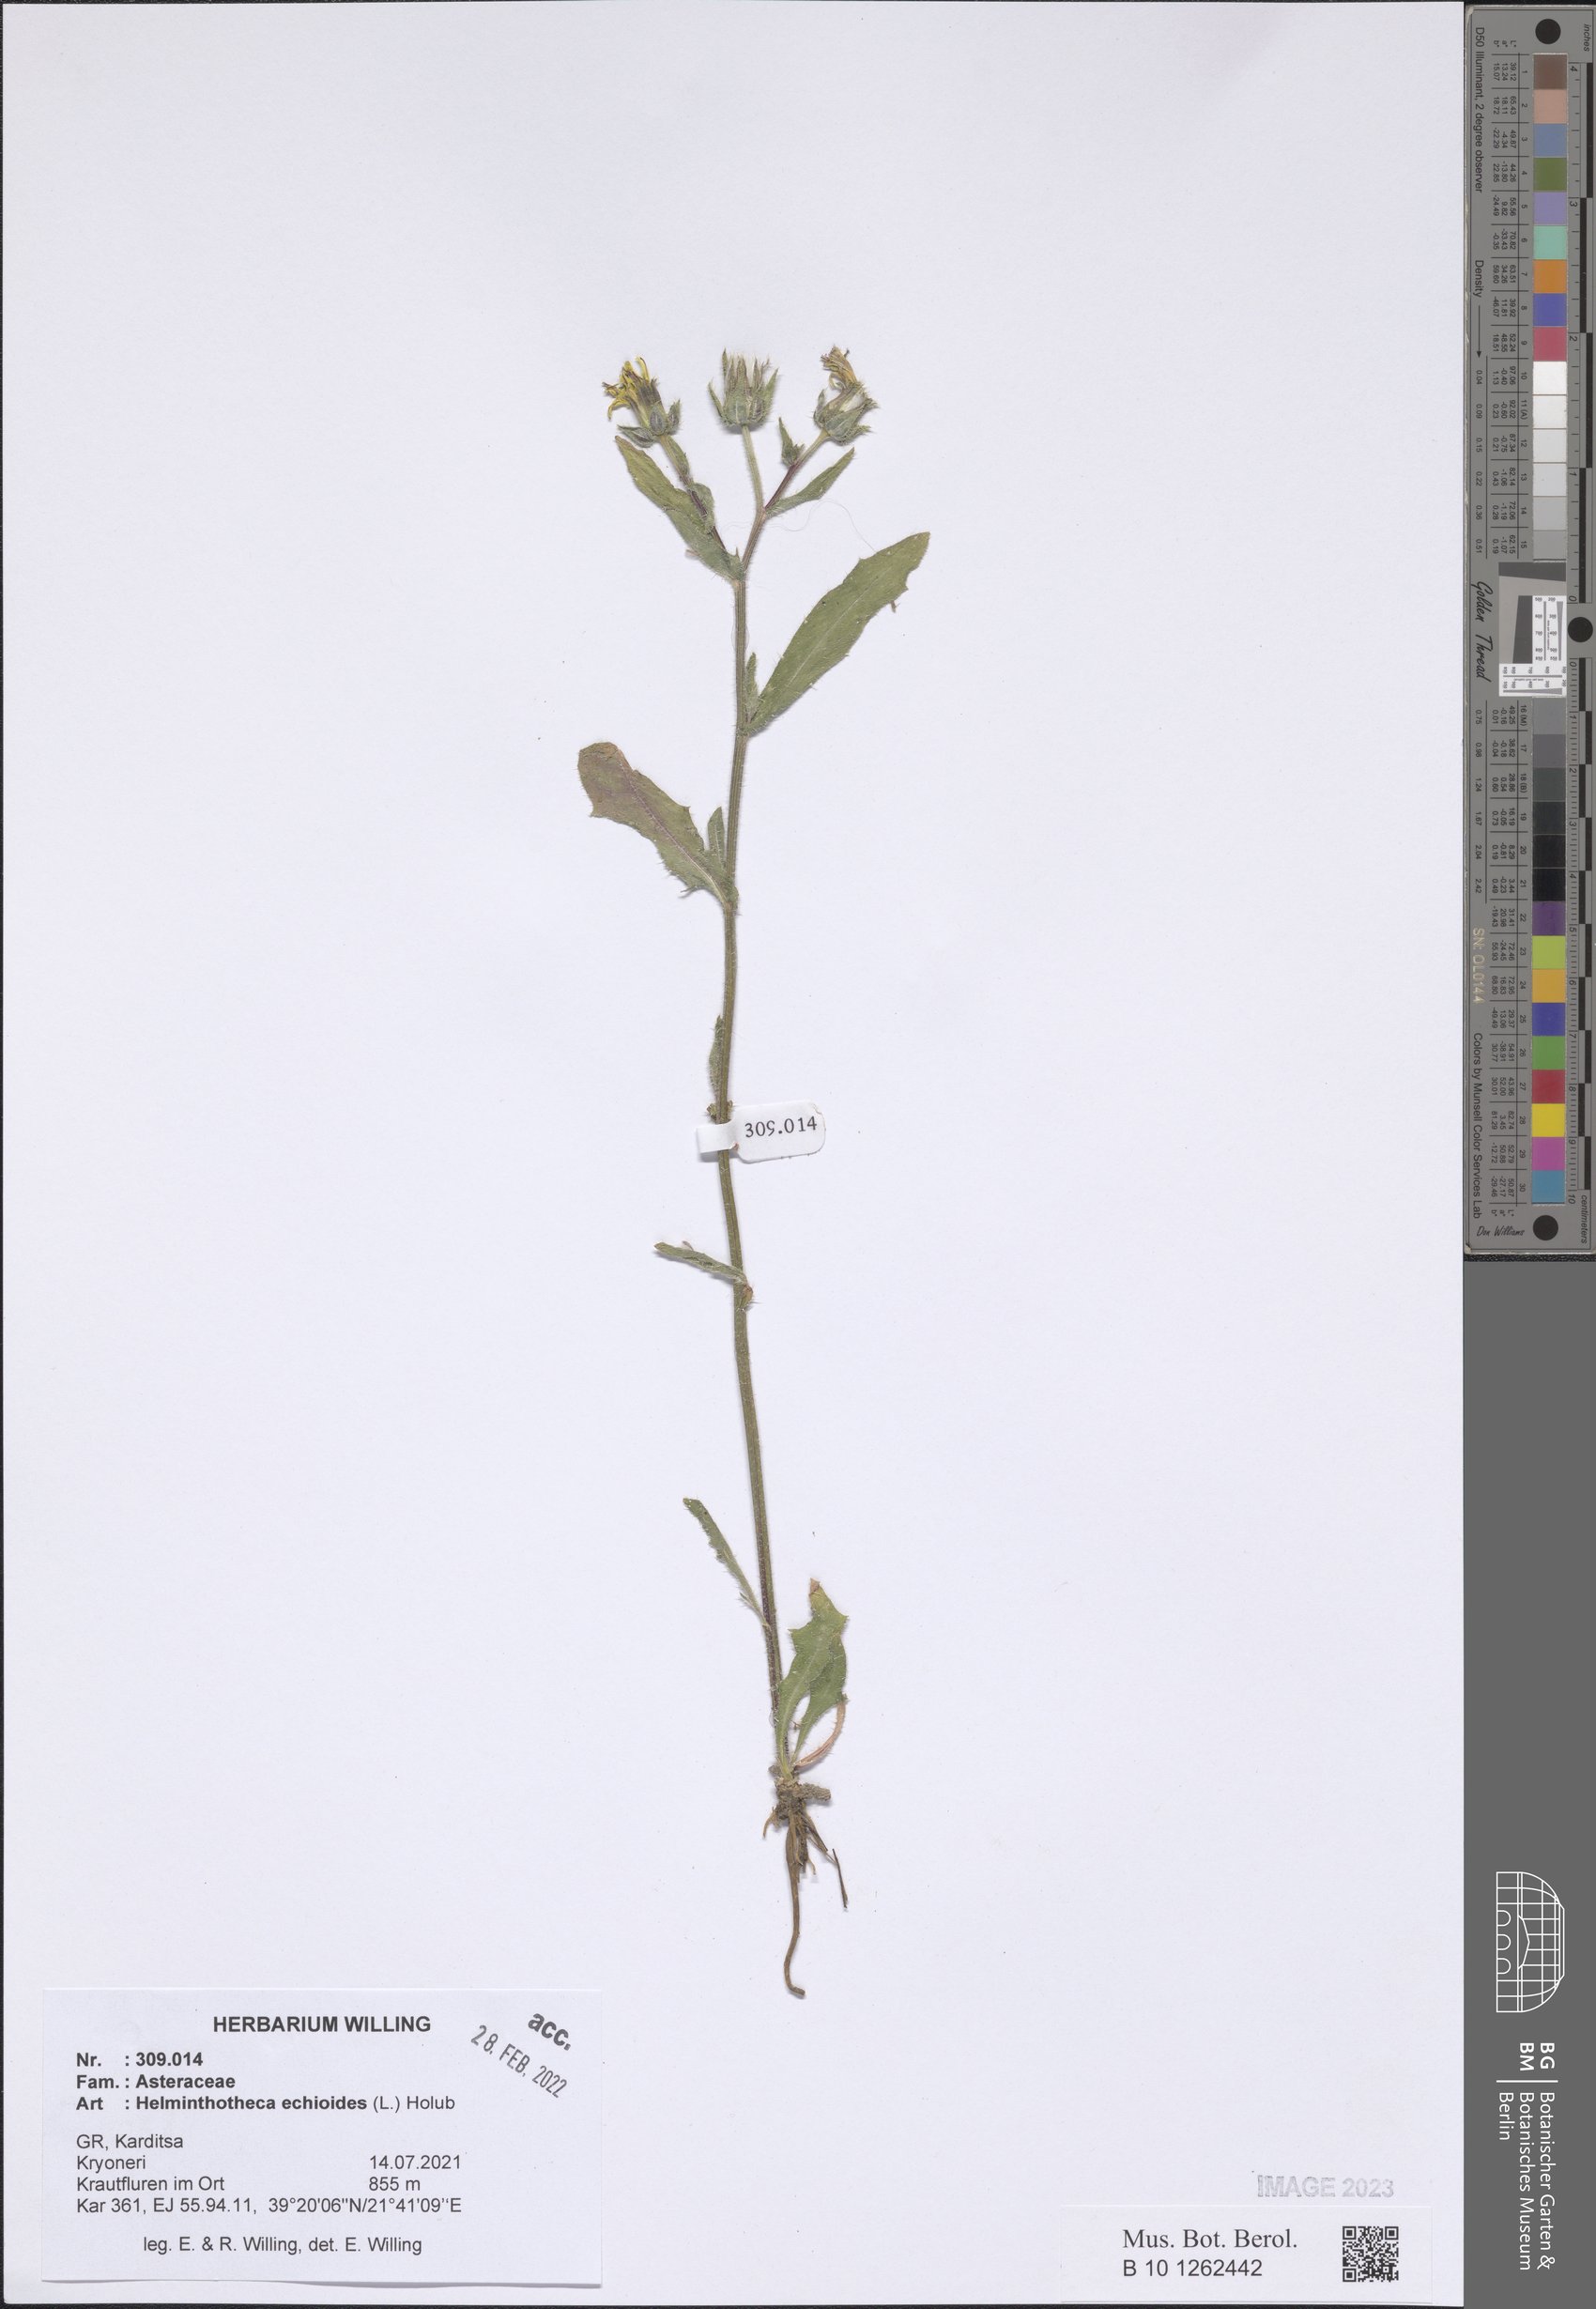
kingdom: Plantae
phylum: Tracheophyta
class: Magnoliopsida
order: Asterales
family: Asteraceae
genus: Helminthotheca
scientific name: Helminthotheca echioides
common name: Ox-tongue
